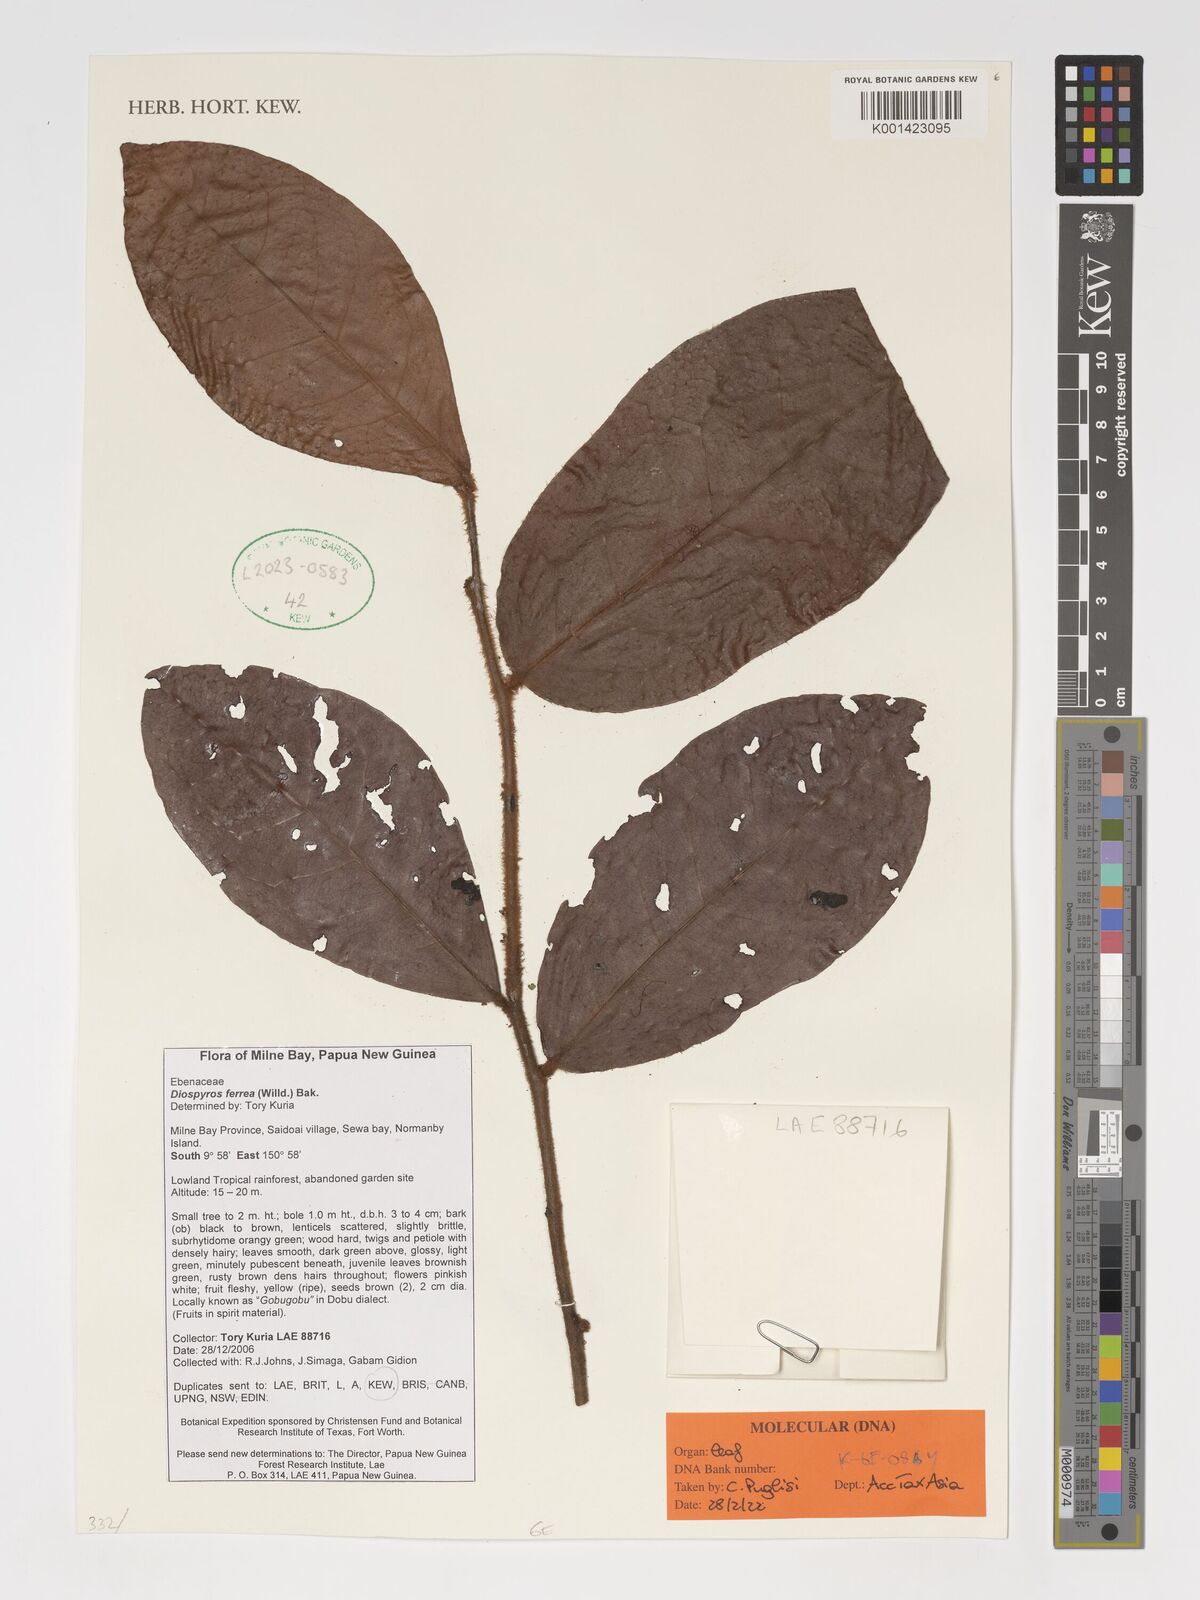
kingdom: Plantae
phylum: Tracheophyta
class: Magnoliopsida
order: Ericales
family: Ebenaceae
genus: Diospyros
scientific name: Diospyros ferrea
